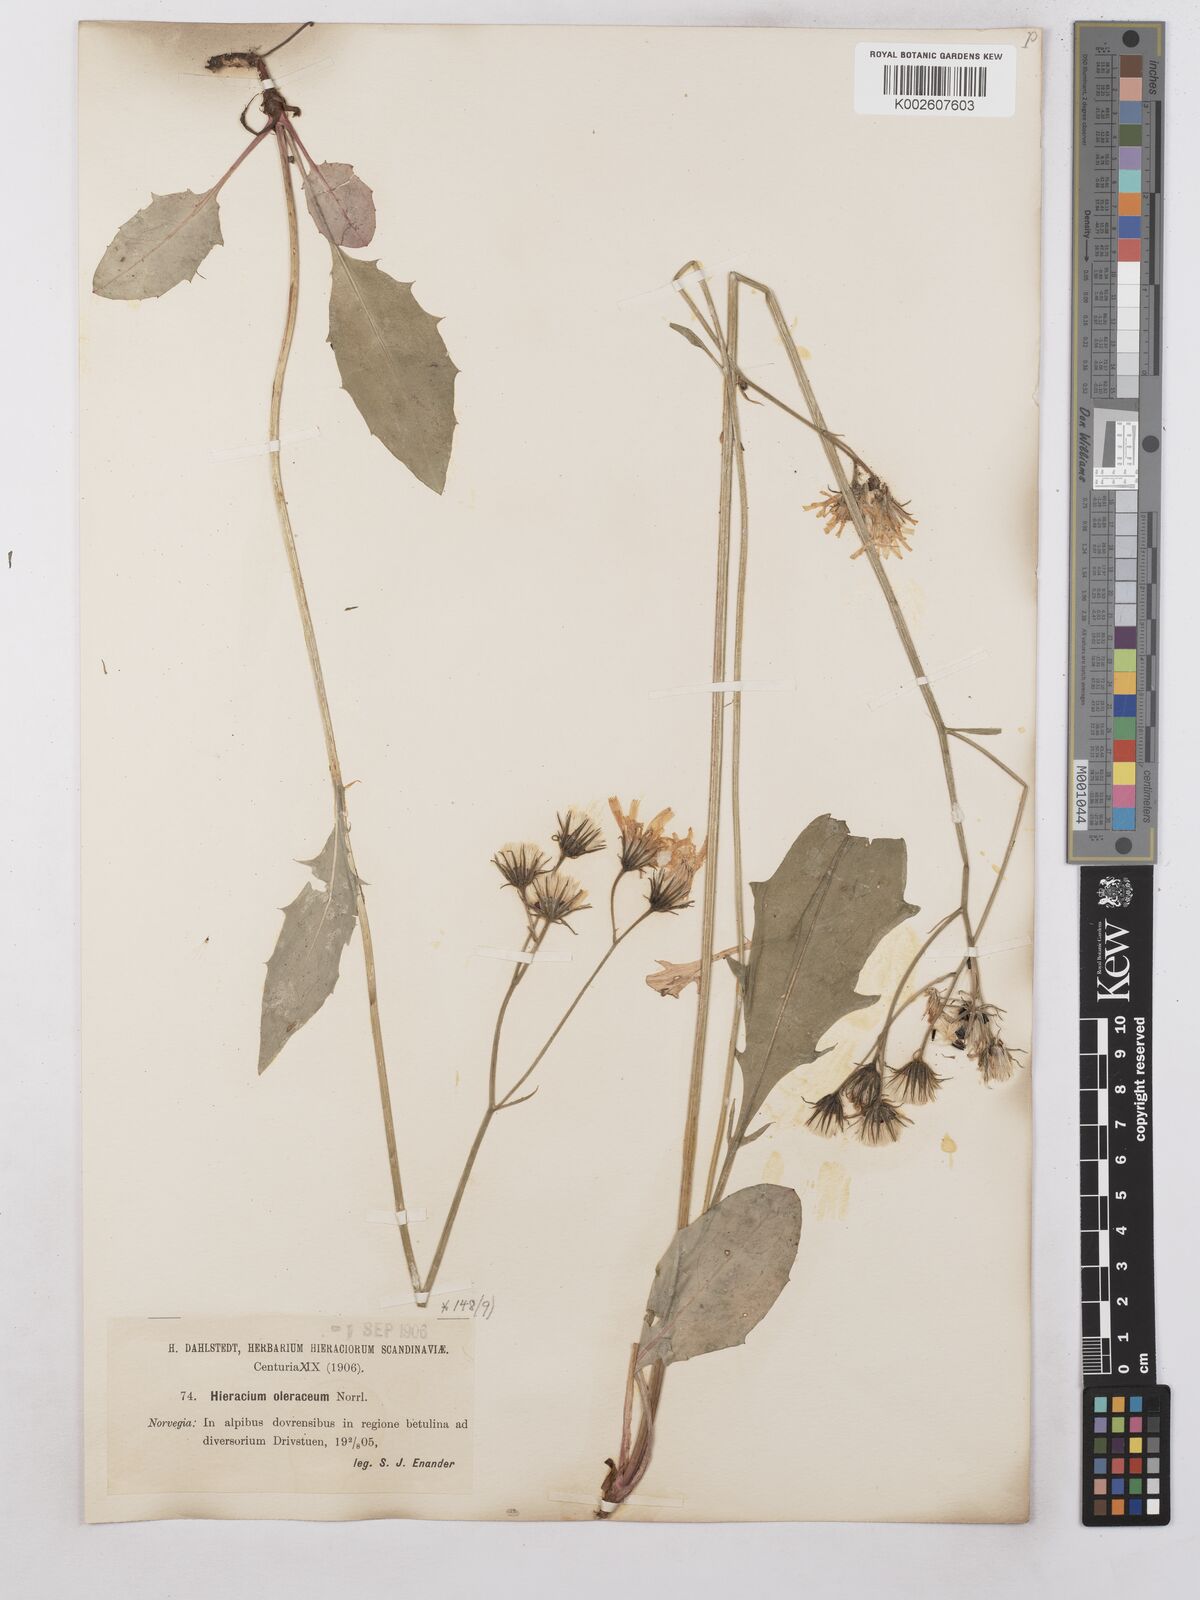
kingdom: Plantae
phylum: Tracheophyta
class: Magnoliopsida
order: Asterales
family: Asteraceae
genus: Hieracium
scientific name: Hieracium subramosum
